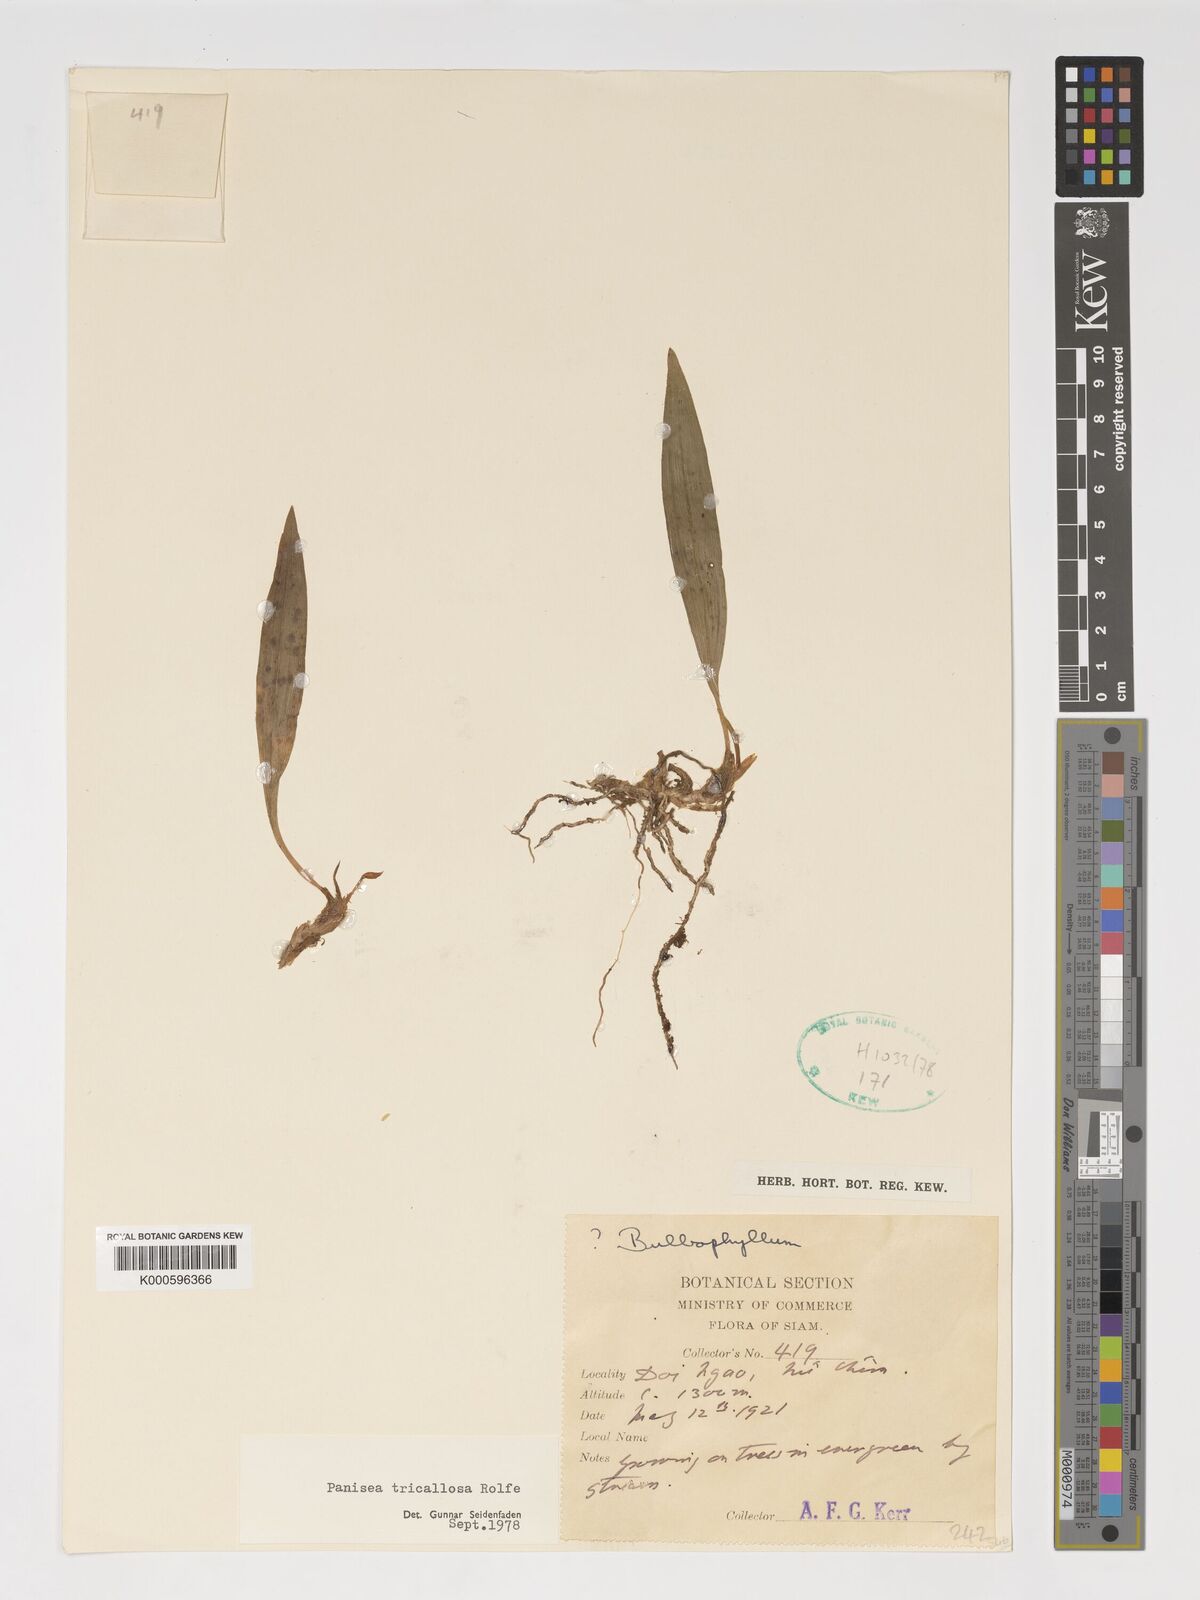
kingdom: Plantae
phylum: Tracheophyta
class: Liliopsida
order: Asparagales
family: Orchidaceae
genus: Coelogyne
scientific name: Coelogyne tricallosa
